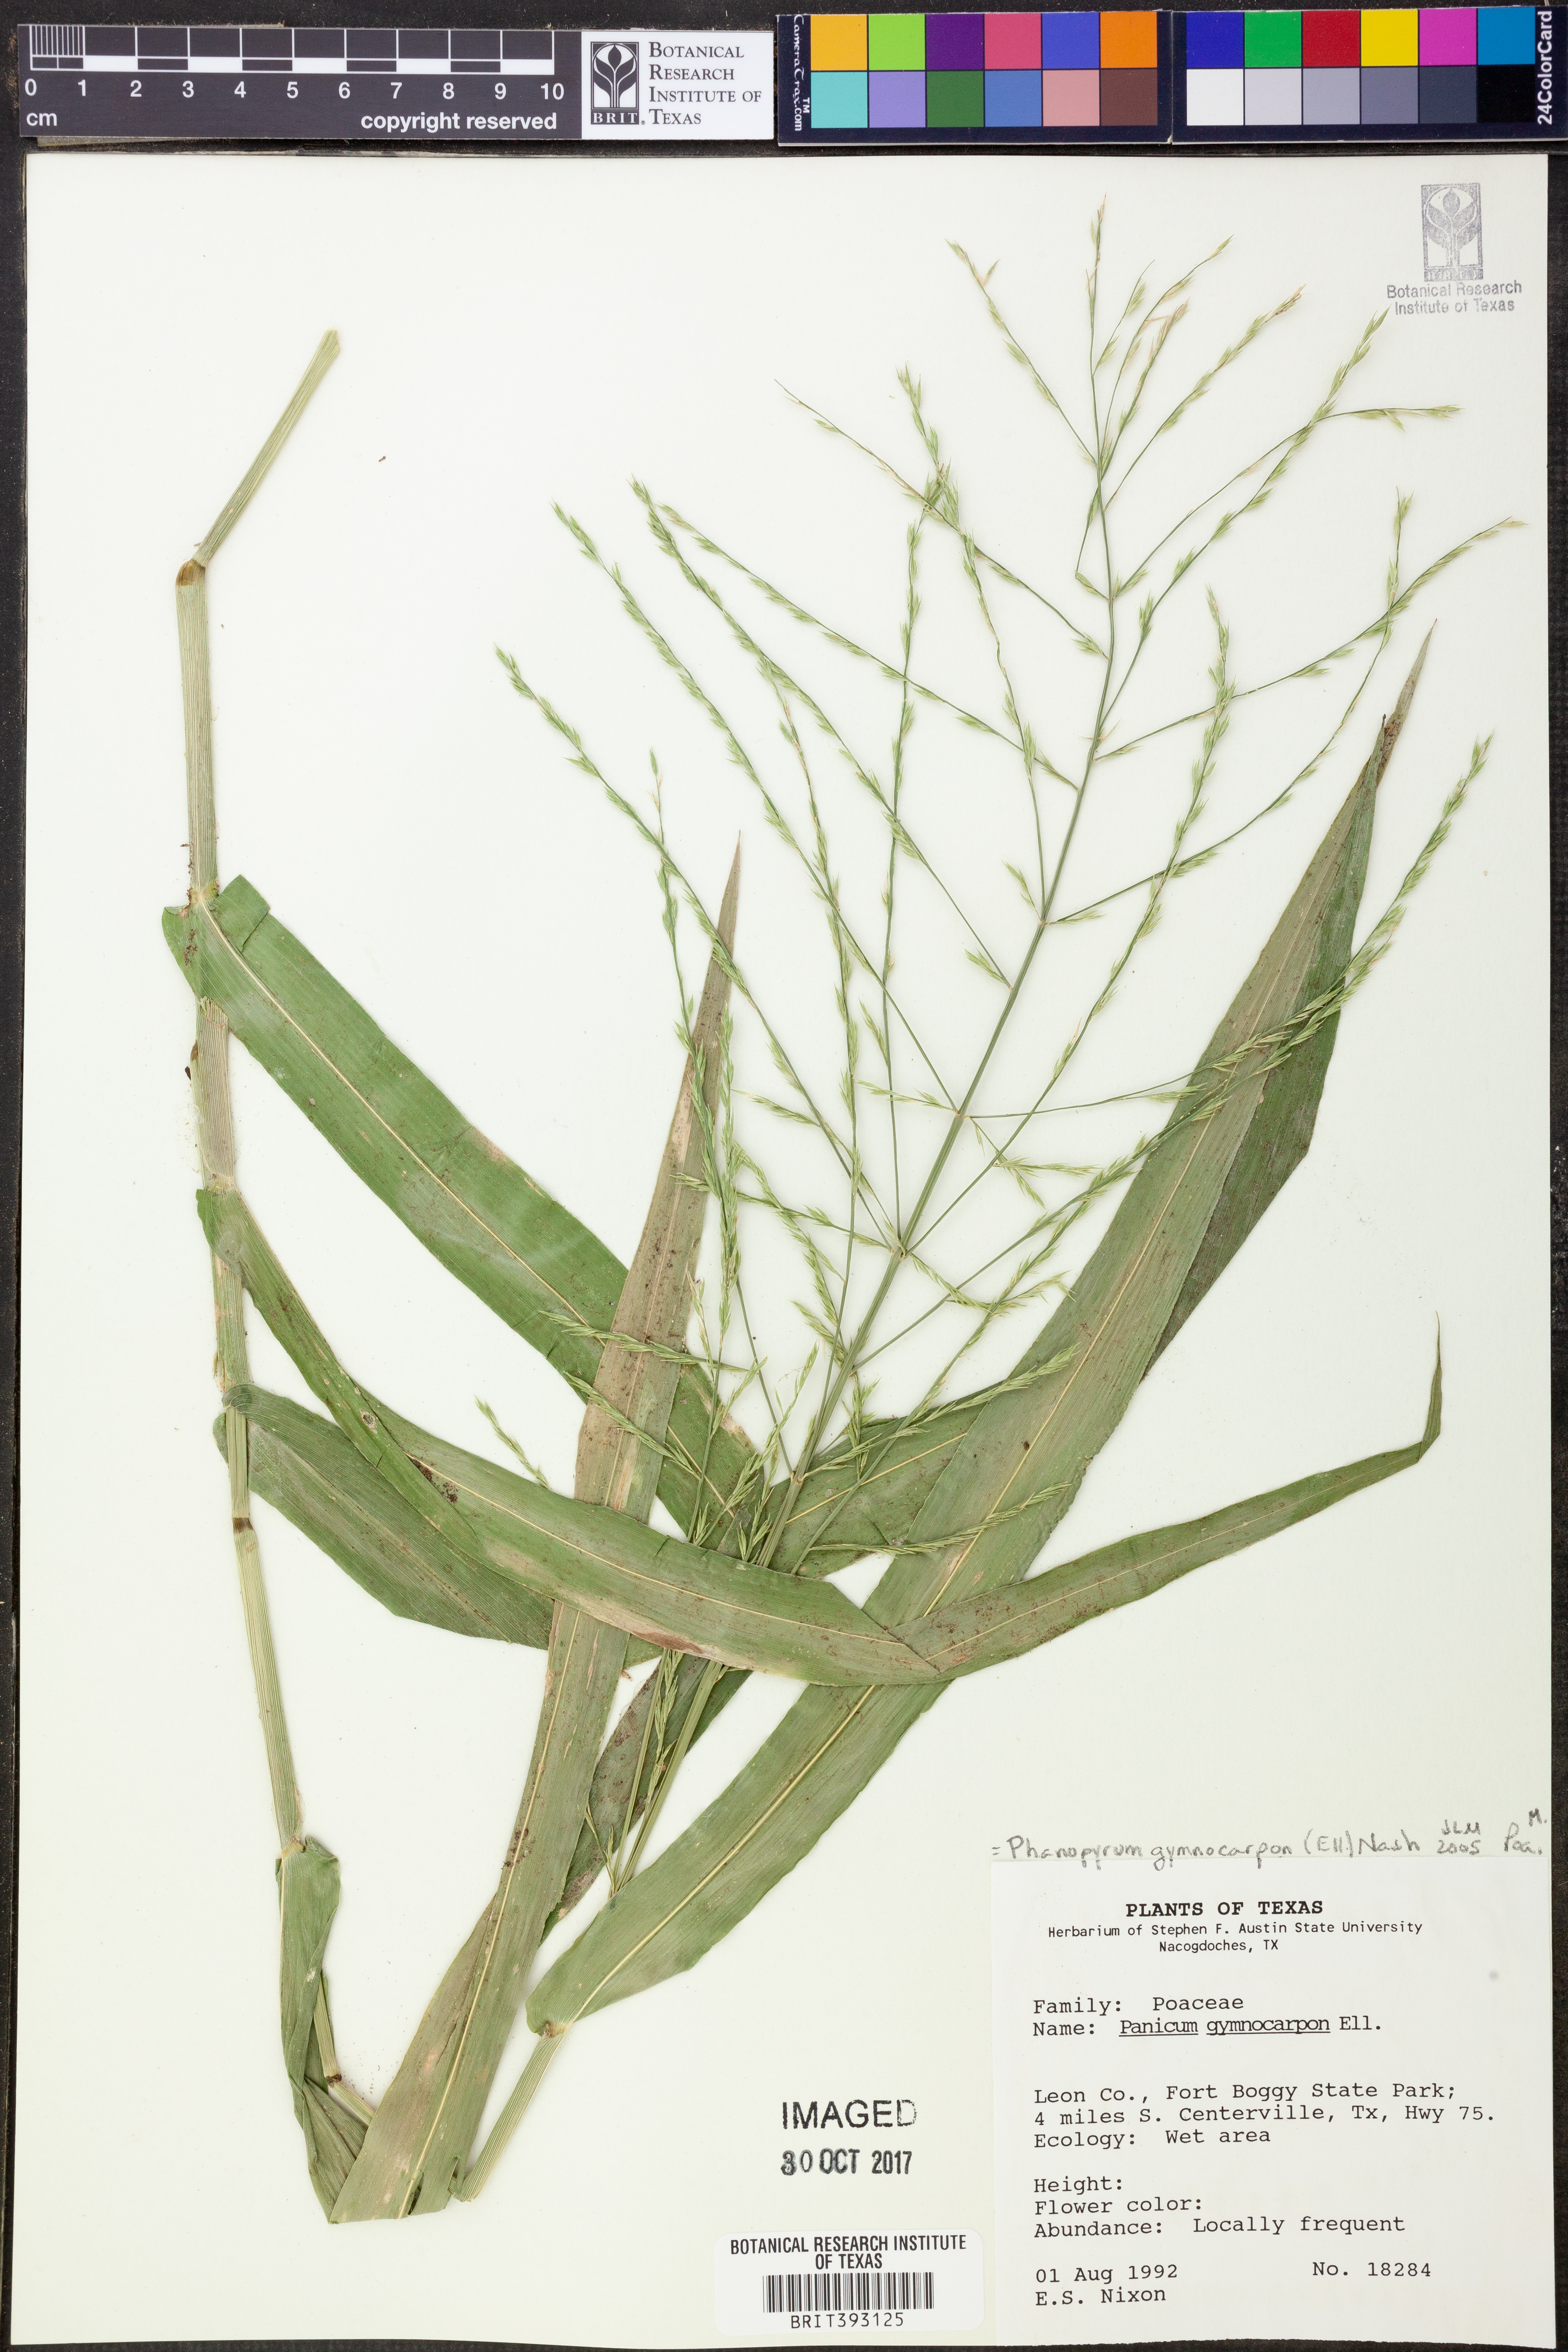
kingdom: Plantae
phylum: Tracheophyta
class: Liliopsida
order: Poales
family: Poaceae
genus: Panicum
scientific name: Panicum gymnocarpon
